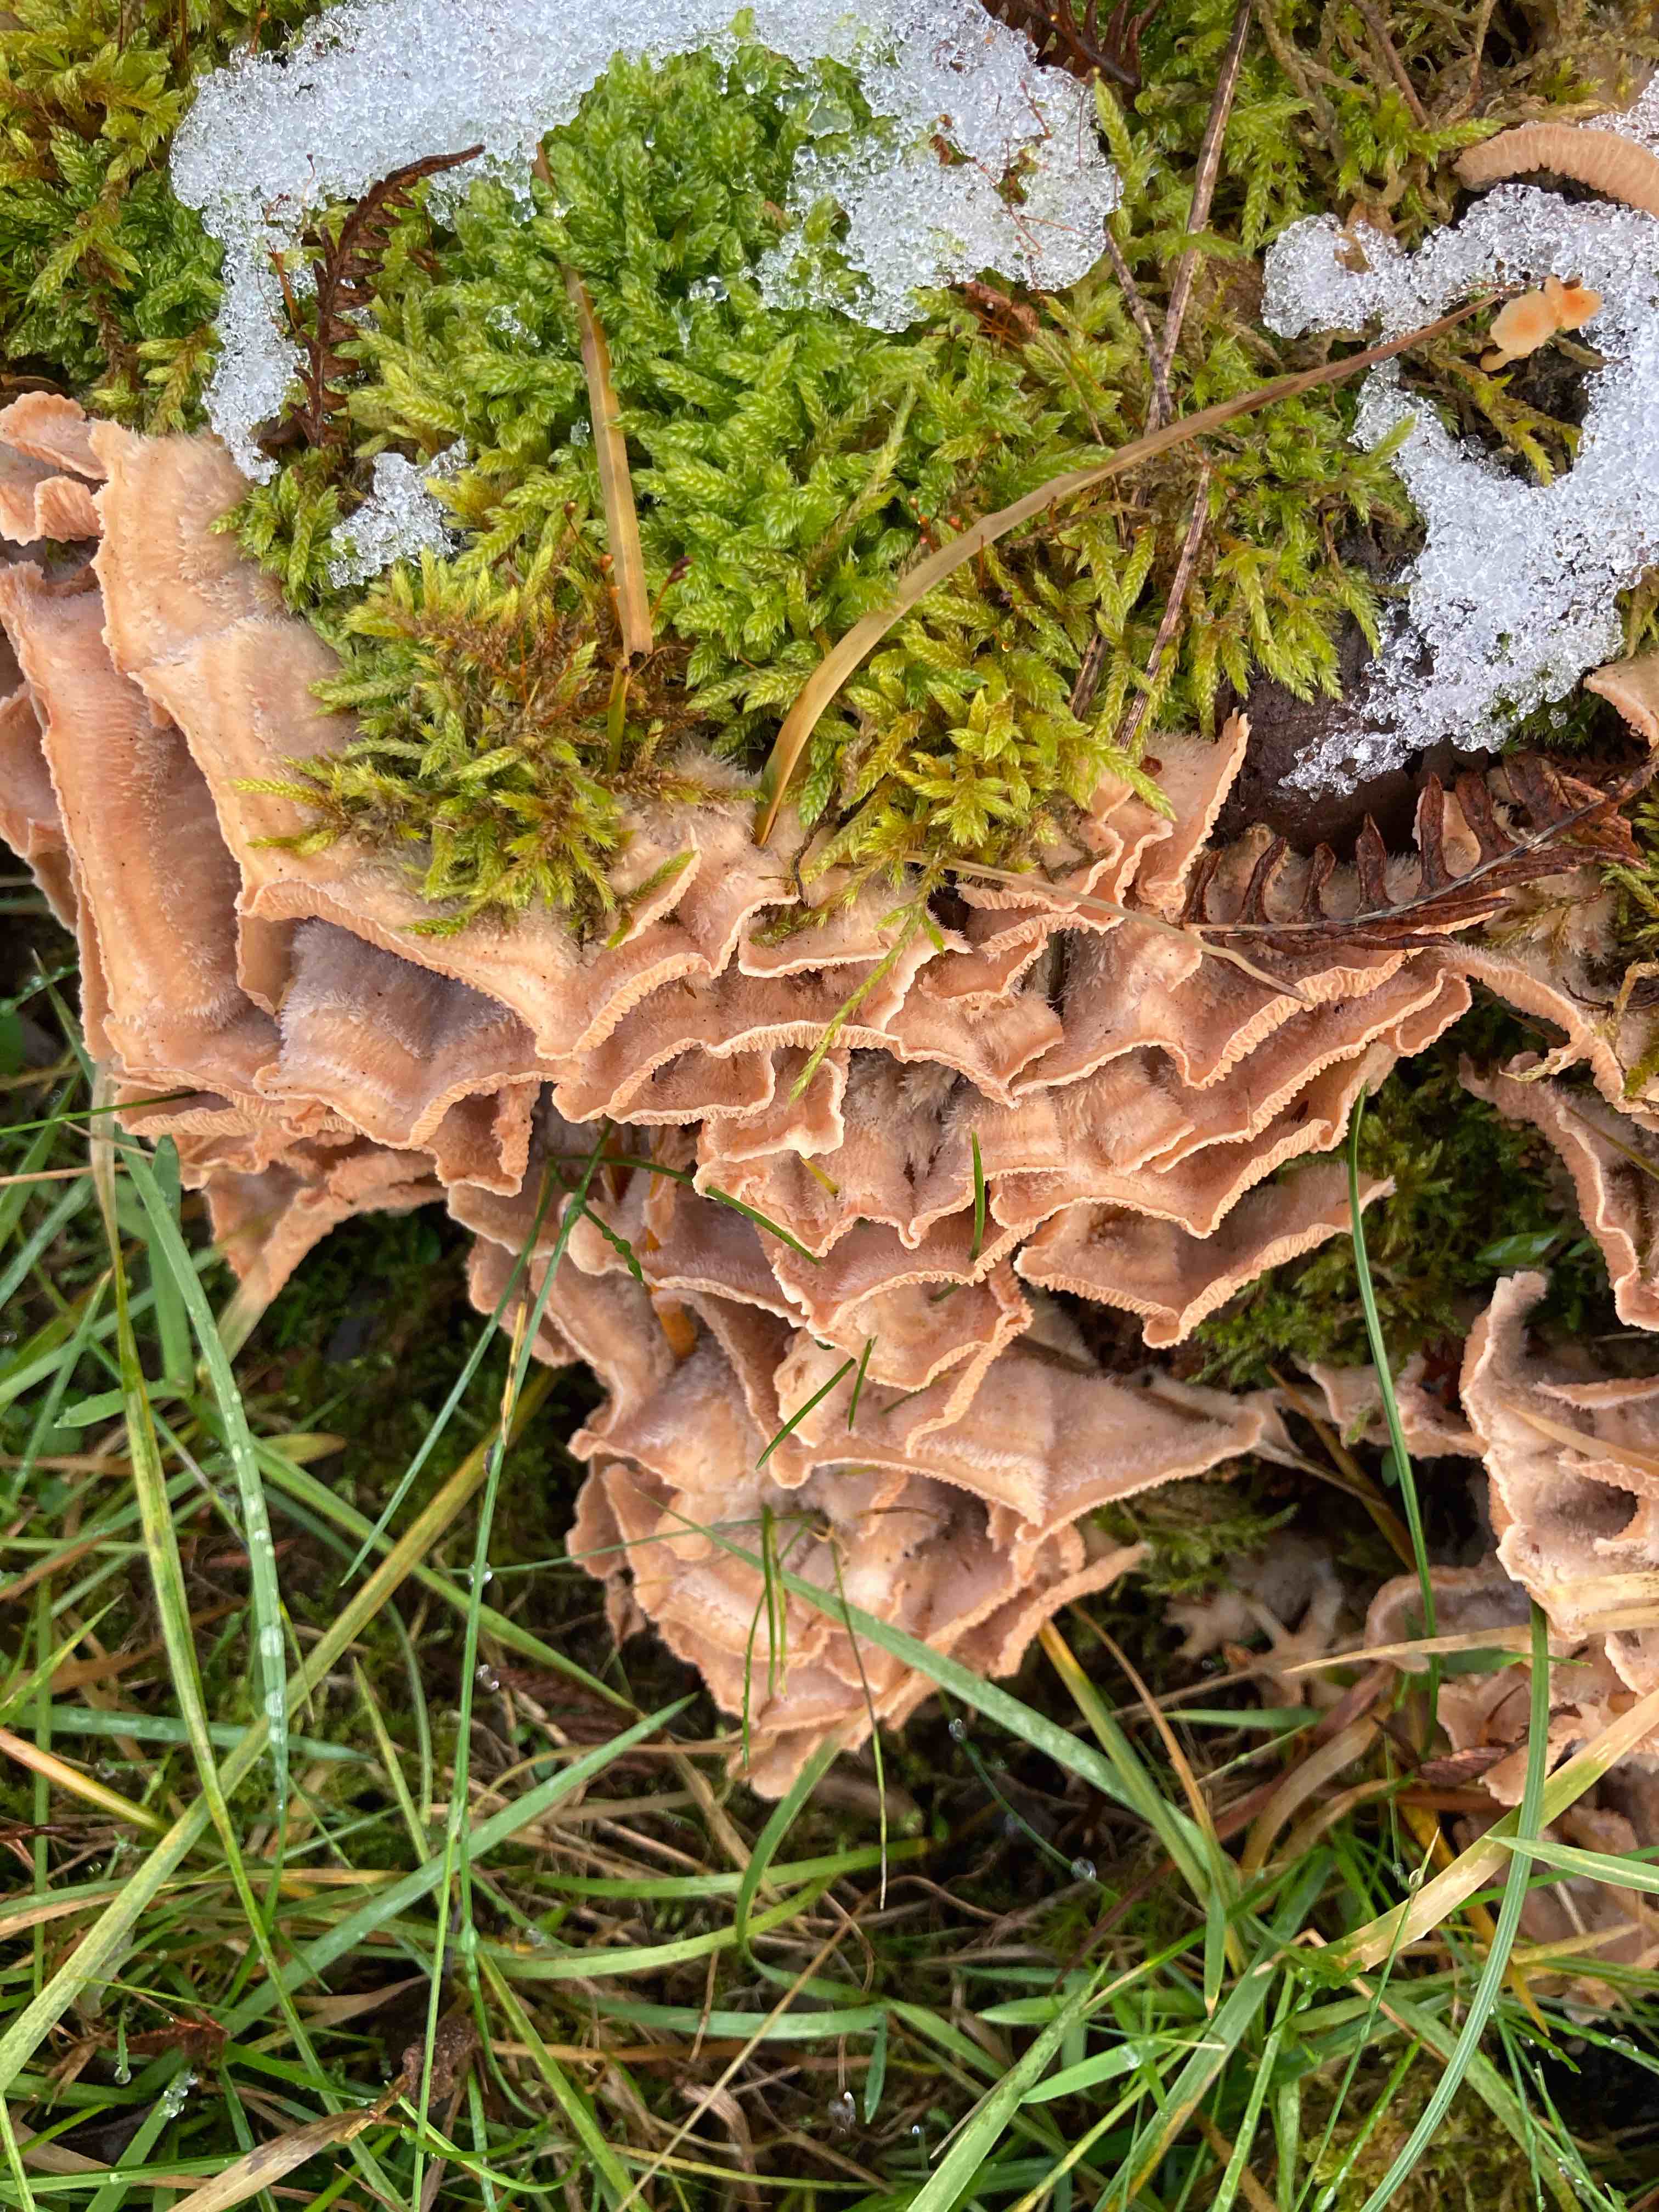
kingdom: Fungi
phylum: Basidiomycota
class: Agaricomycetes
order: Polyporales
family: Meruliaceae
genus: Phlebia
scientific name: Phlebia tremellosa
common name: bævrende åresvamp
